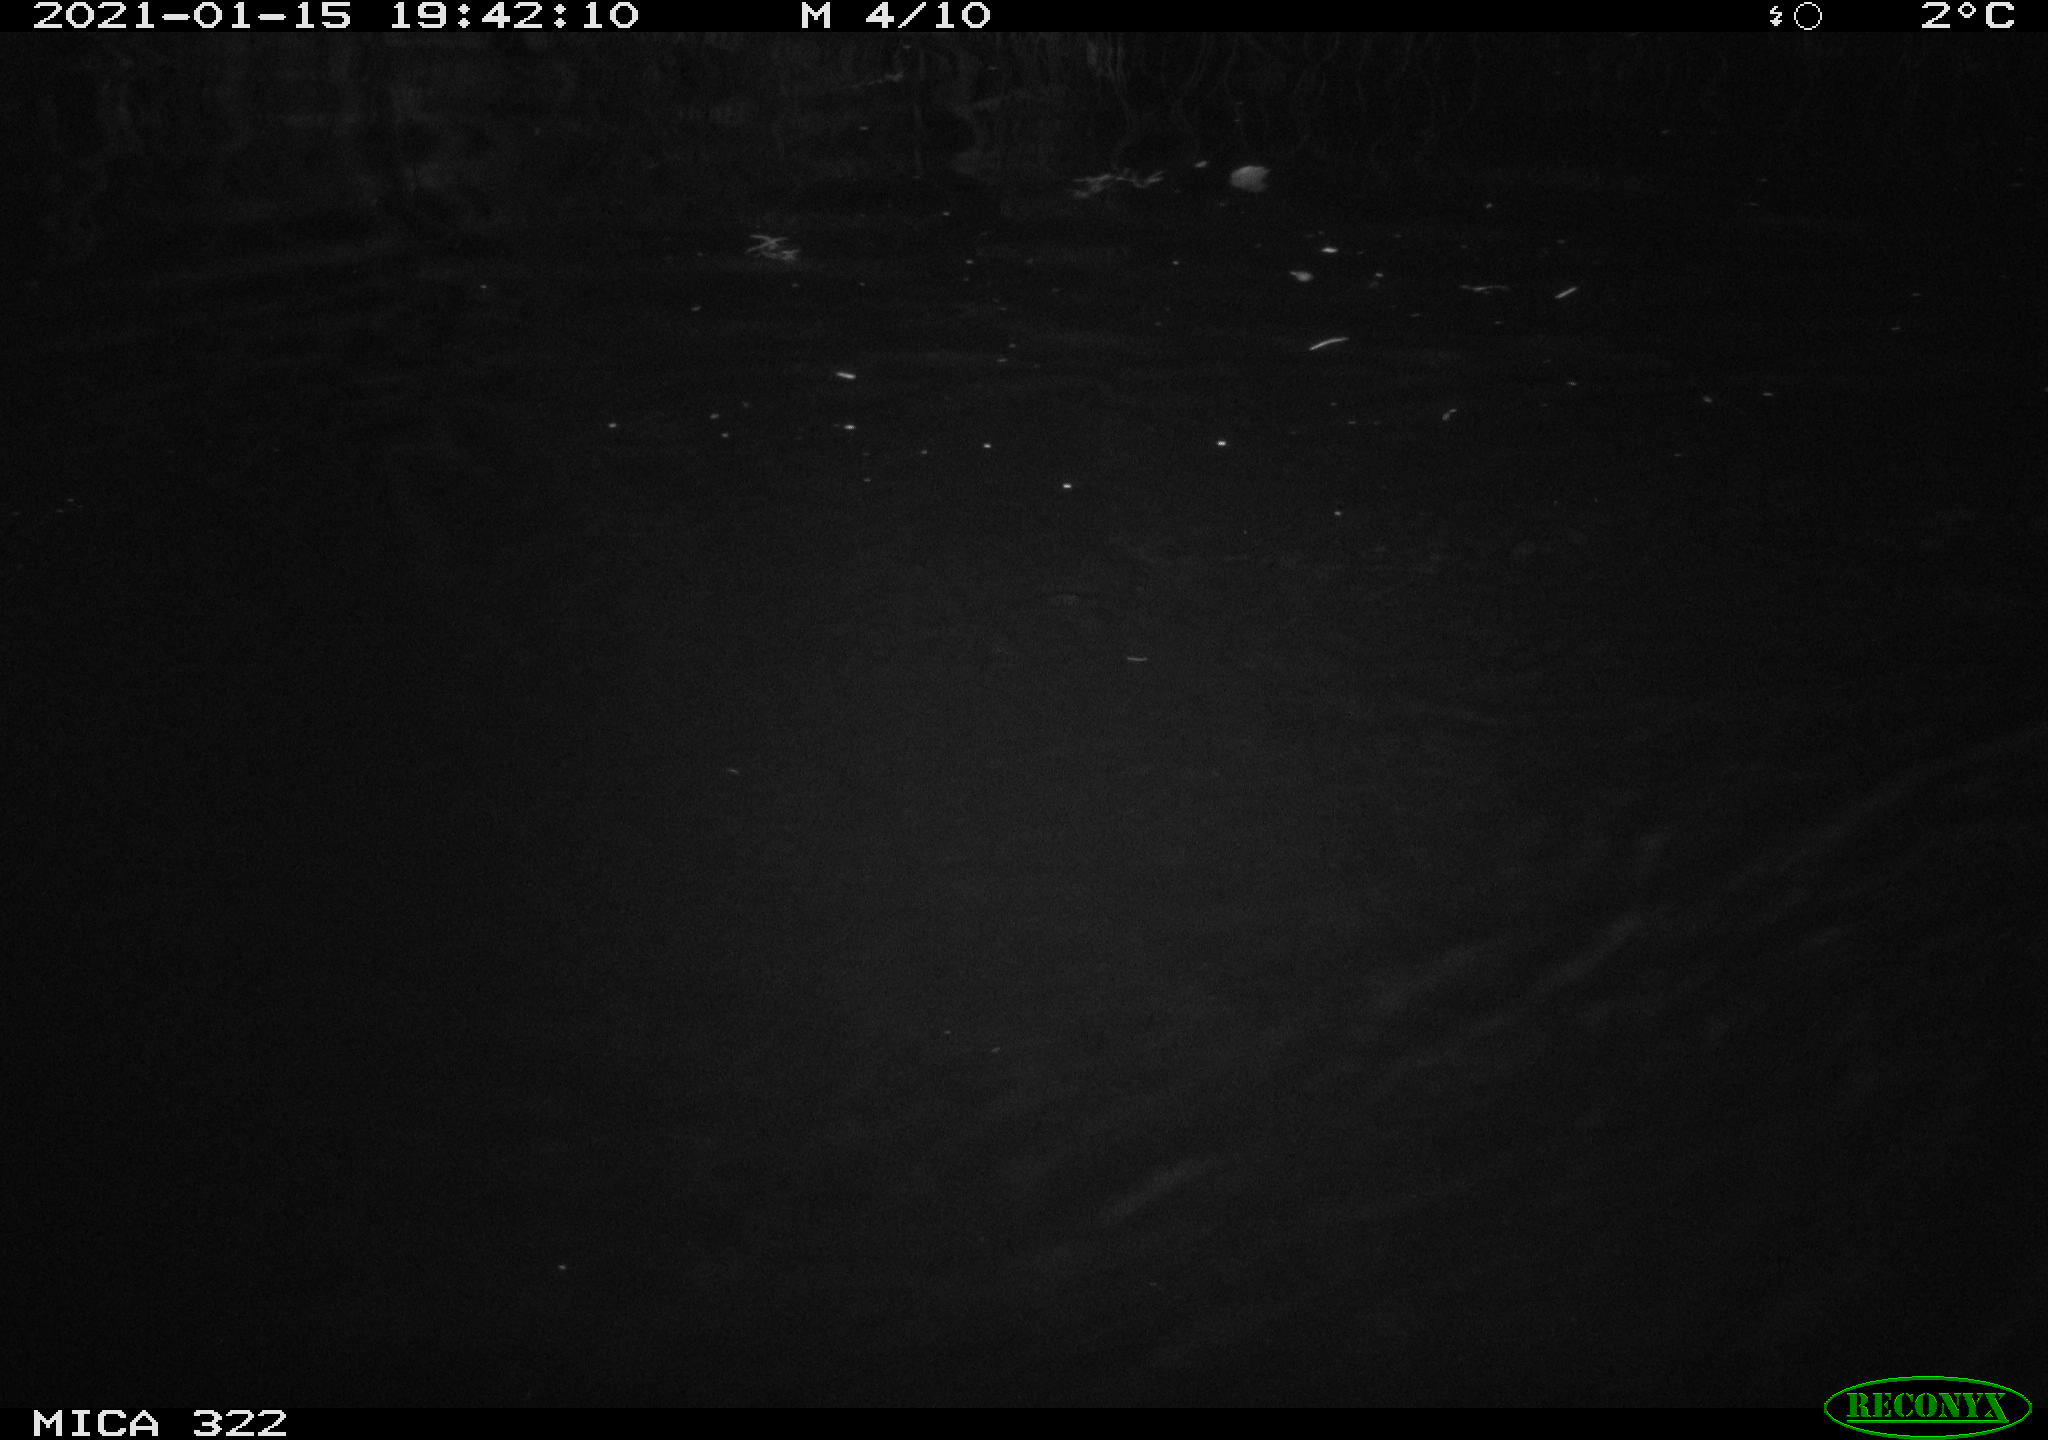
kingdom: Animalia
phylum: Chordata
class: Aves
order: Anseriformes
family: Anatidae
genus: Mareca
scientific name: Mareca strepera
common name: Gadwall
